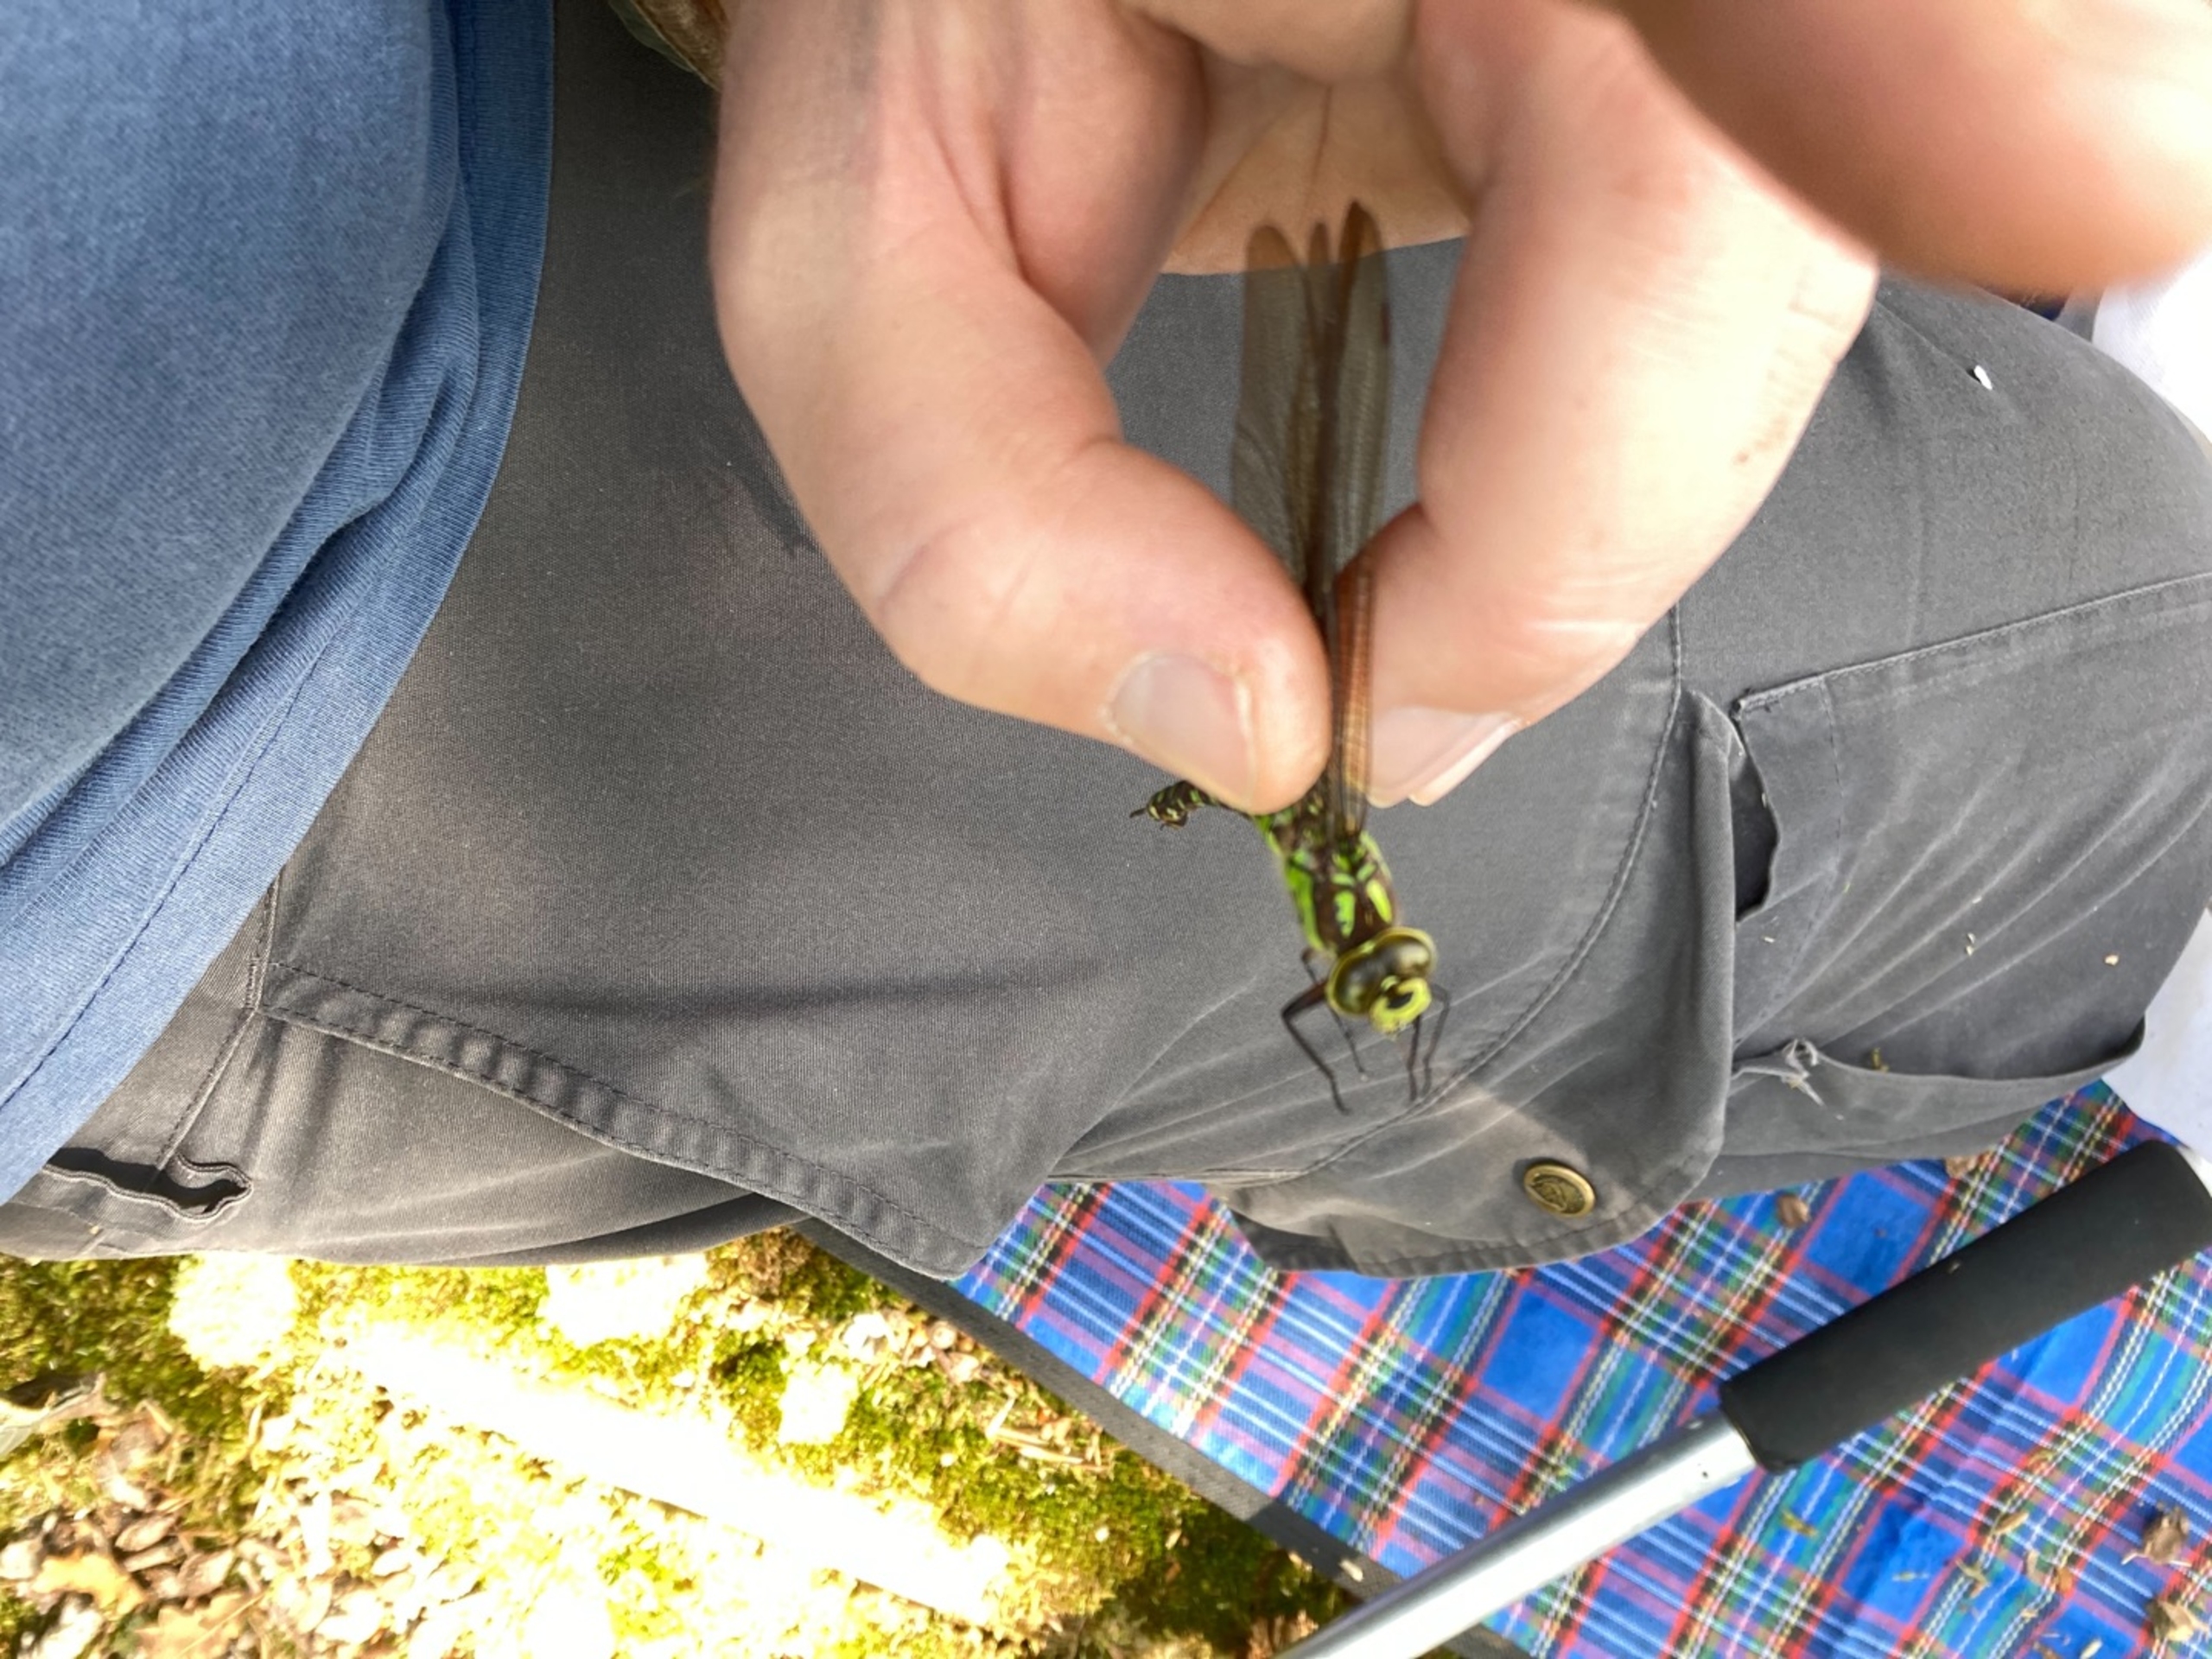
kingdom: Animalia
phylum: Arthropoda
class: Insecta
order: Odonata
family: Aeshnidae
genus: Aeshna
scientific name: Aeshna cyanea
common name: Blå mosaikguldsmed
